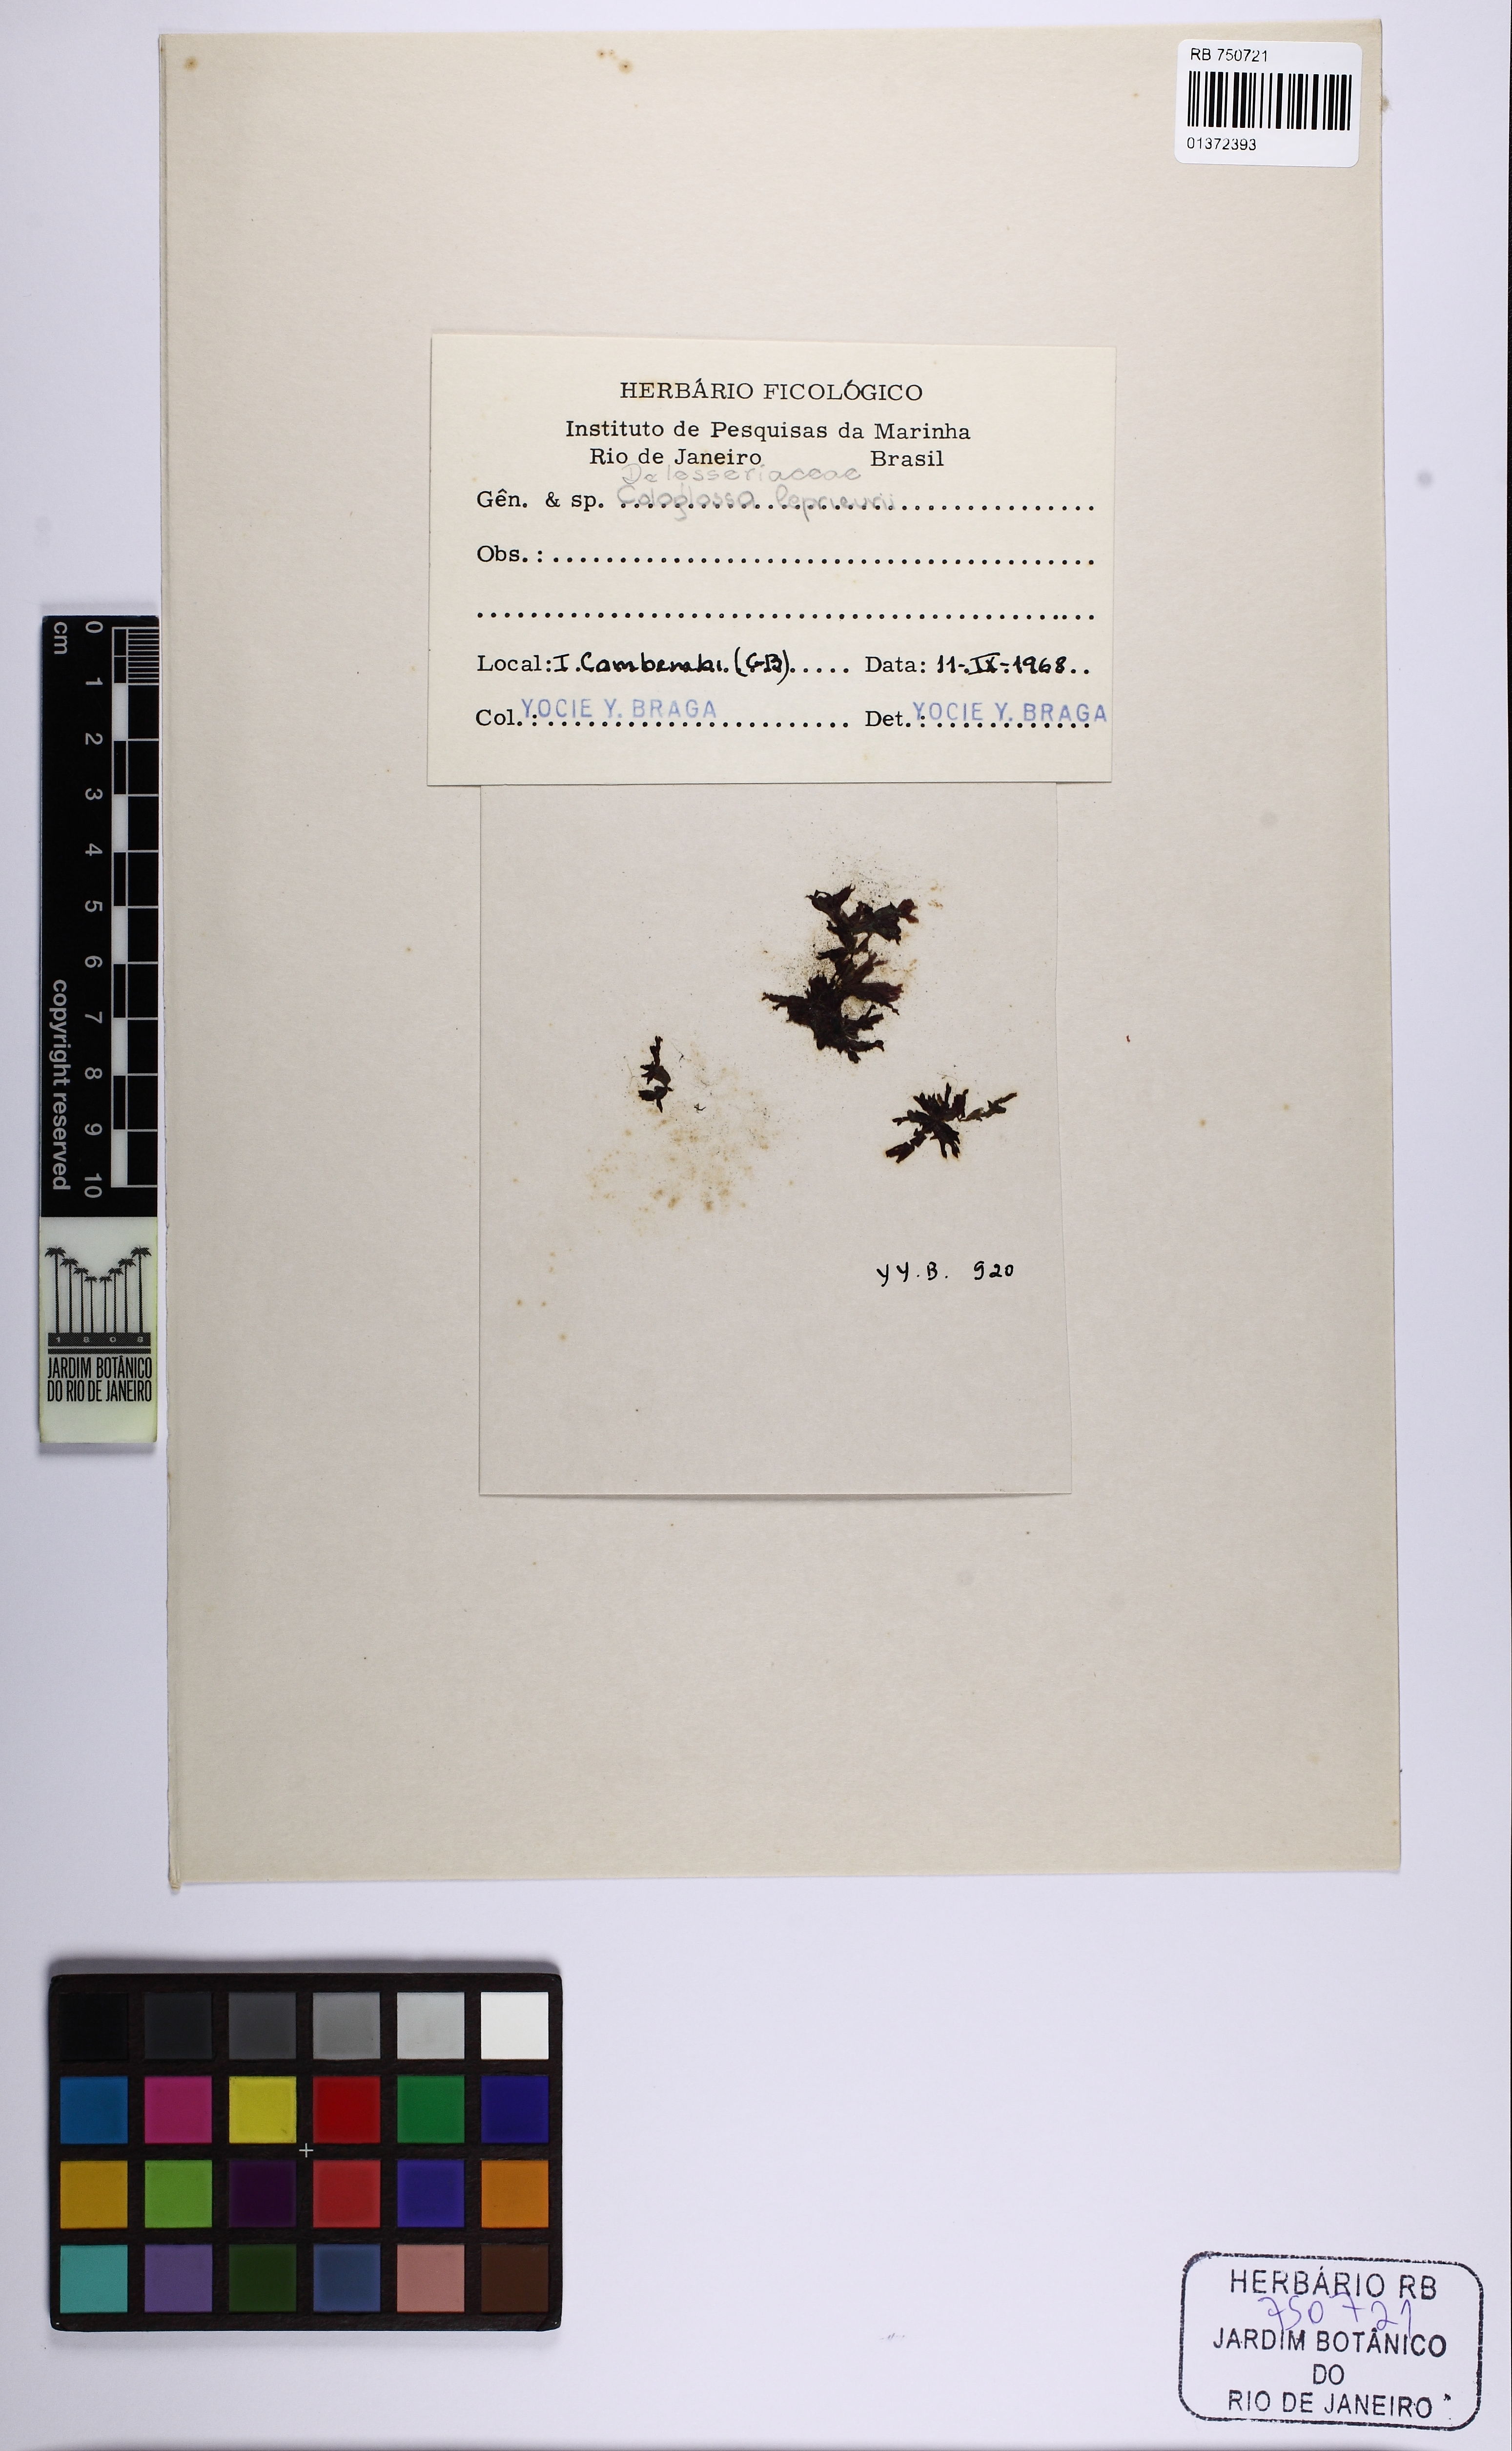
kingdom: Plantae
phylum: Rhodophyta
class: Florideophyceae
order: Ceramiales
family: Delesseriaceae
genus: Caloglossa
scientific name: Caloglossa leprieurii
